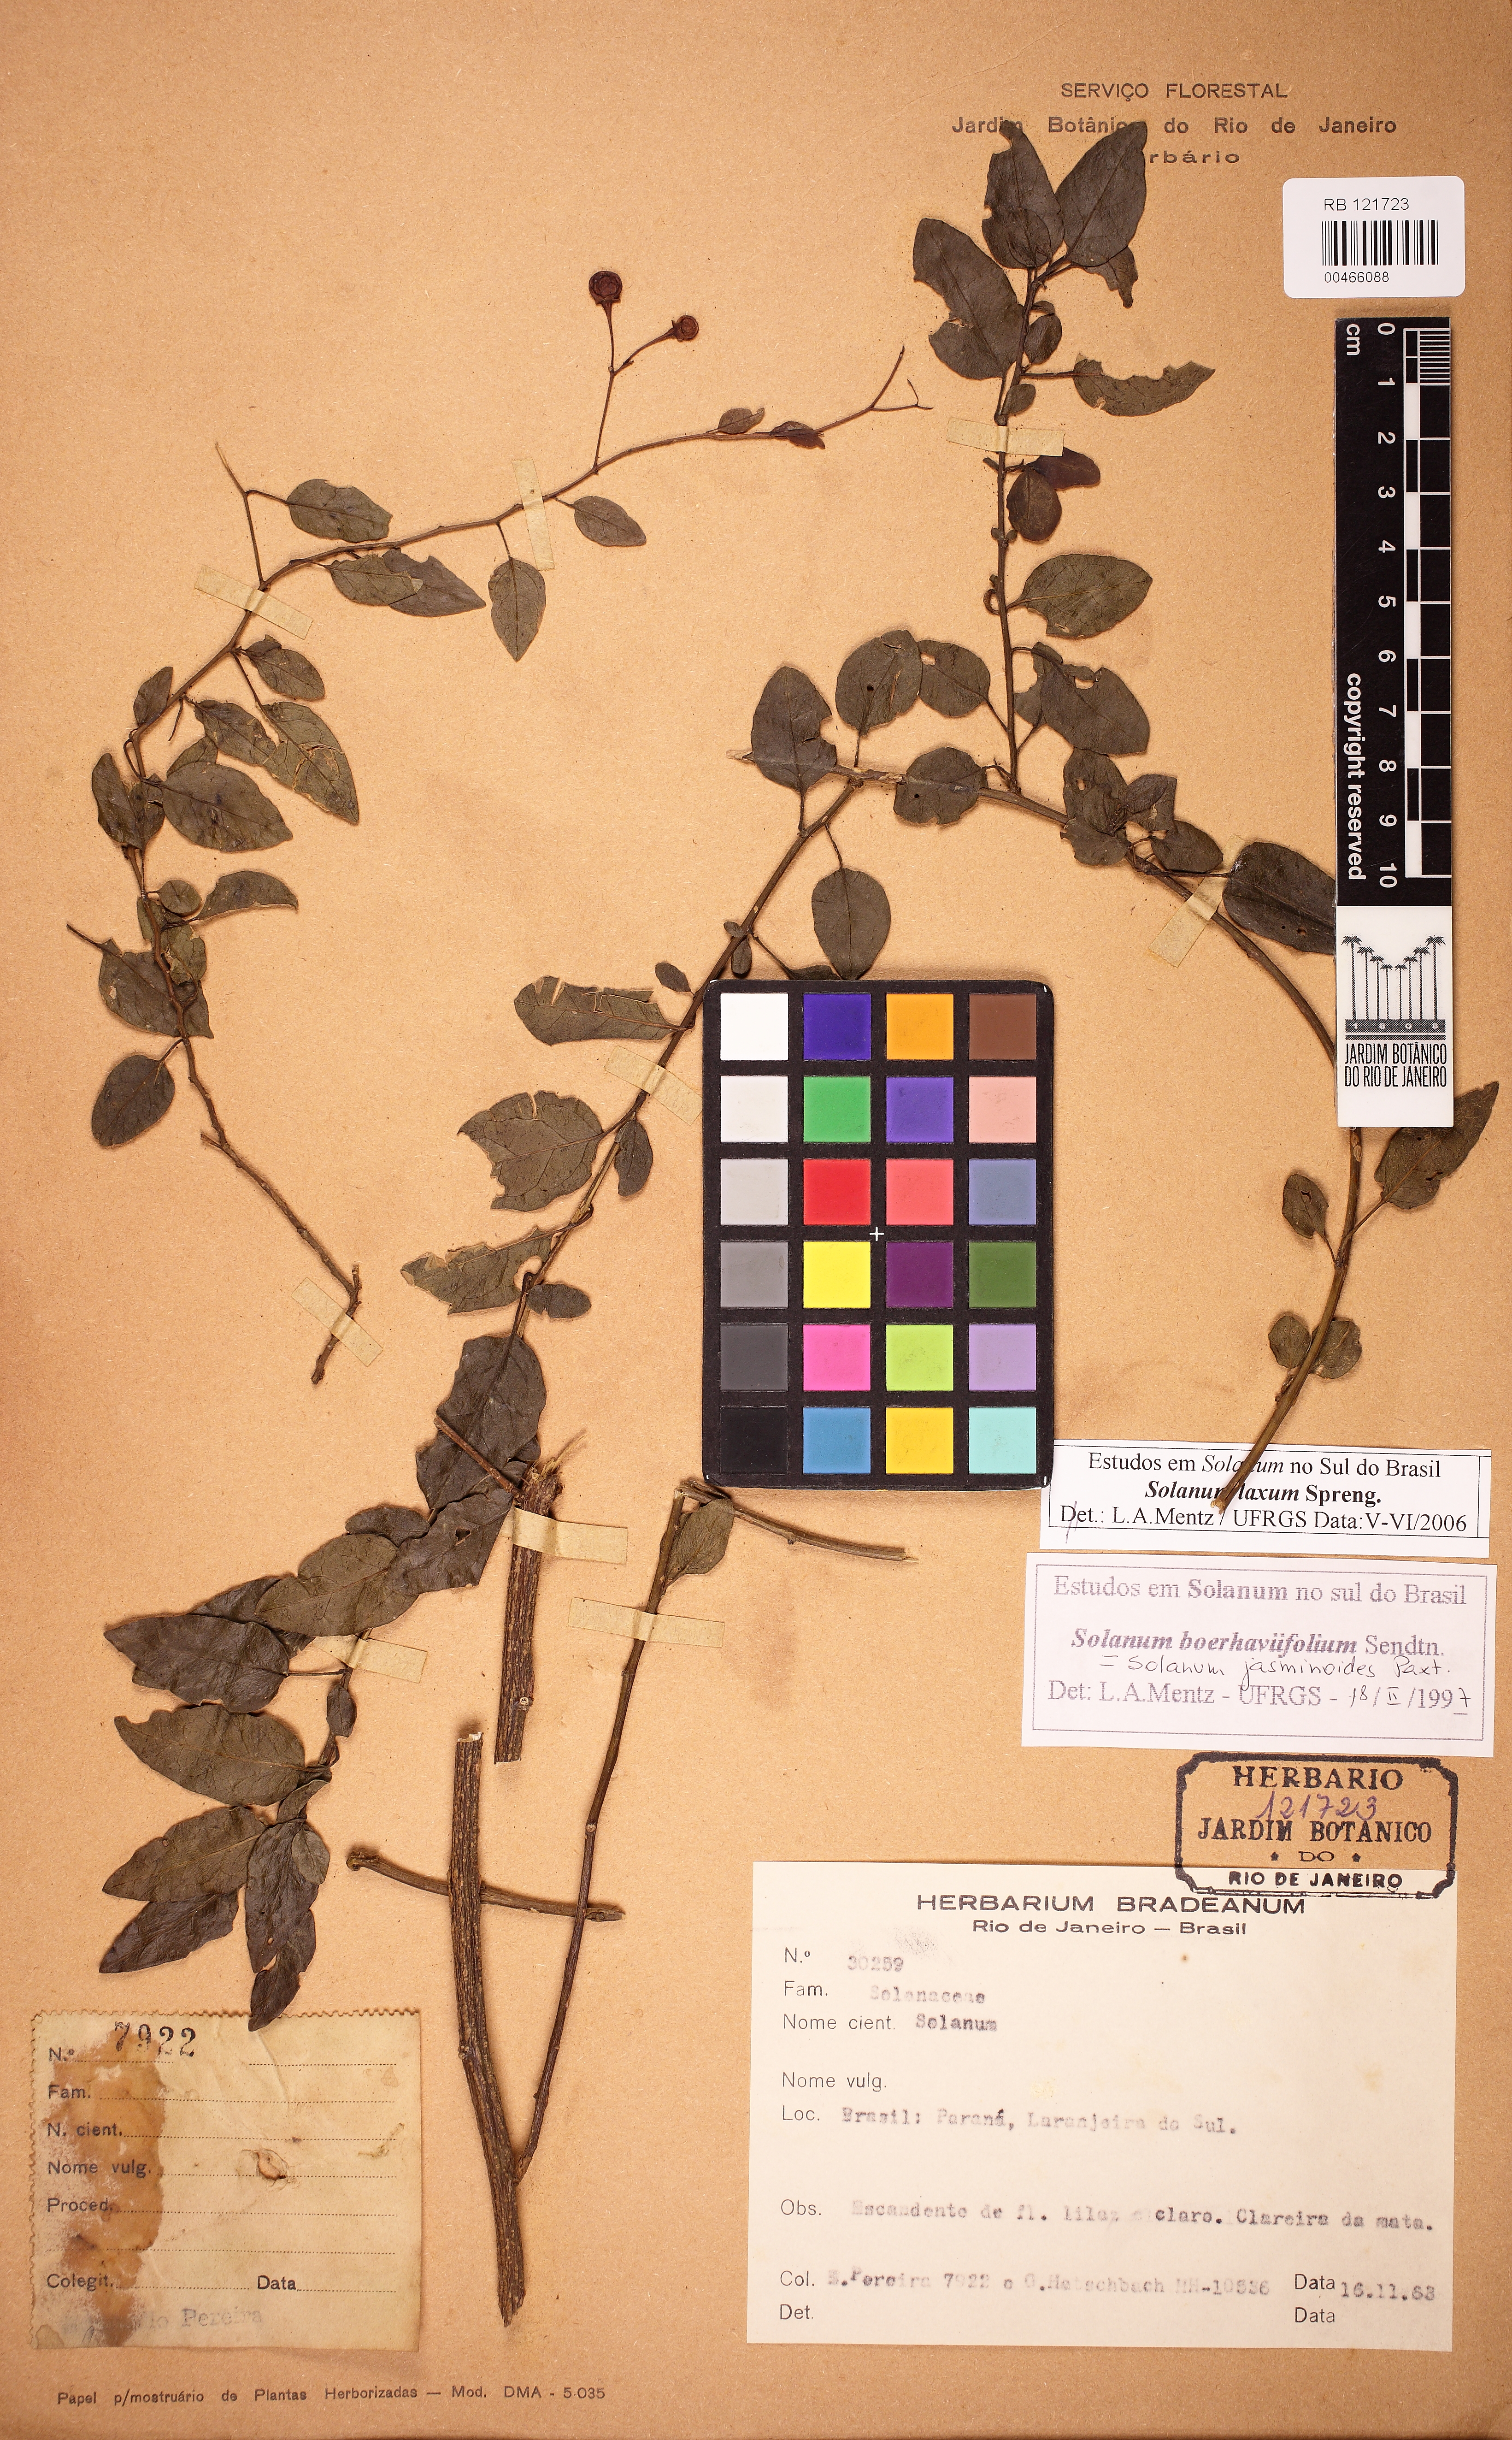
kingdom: Plantae
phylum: Tracheophyta
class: Magnoliopsida
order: Solanales
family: Solanaceae
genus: Solanum
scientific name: Solanum laxum
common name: Nightshade
